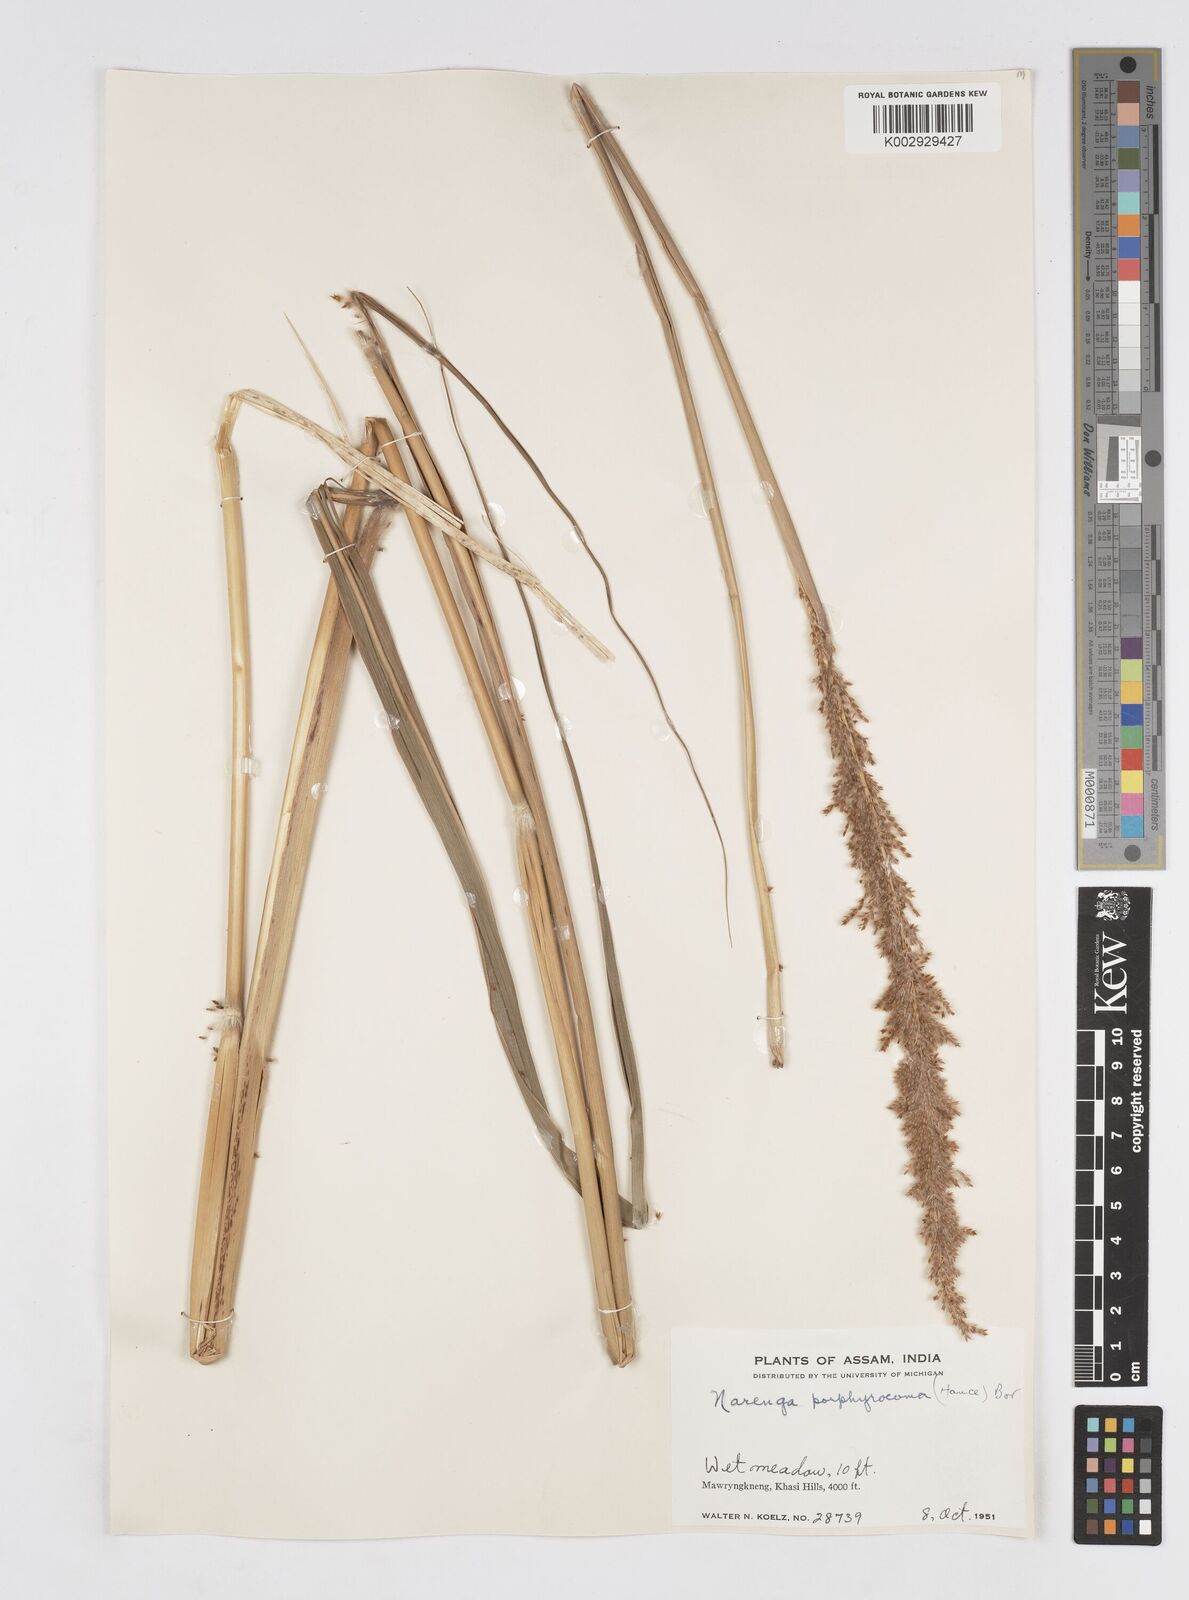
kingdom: Plantae
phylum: Tracheophyta
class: Liliopsida
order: Poales
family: Poaceae
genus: Narenga
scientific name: Narenga porphyrocoma
